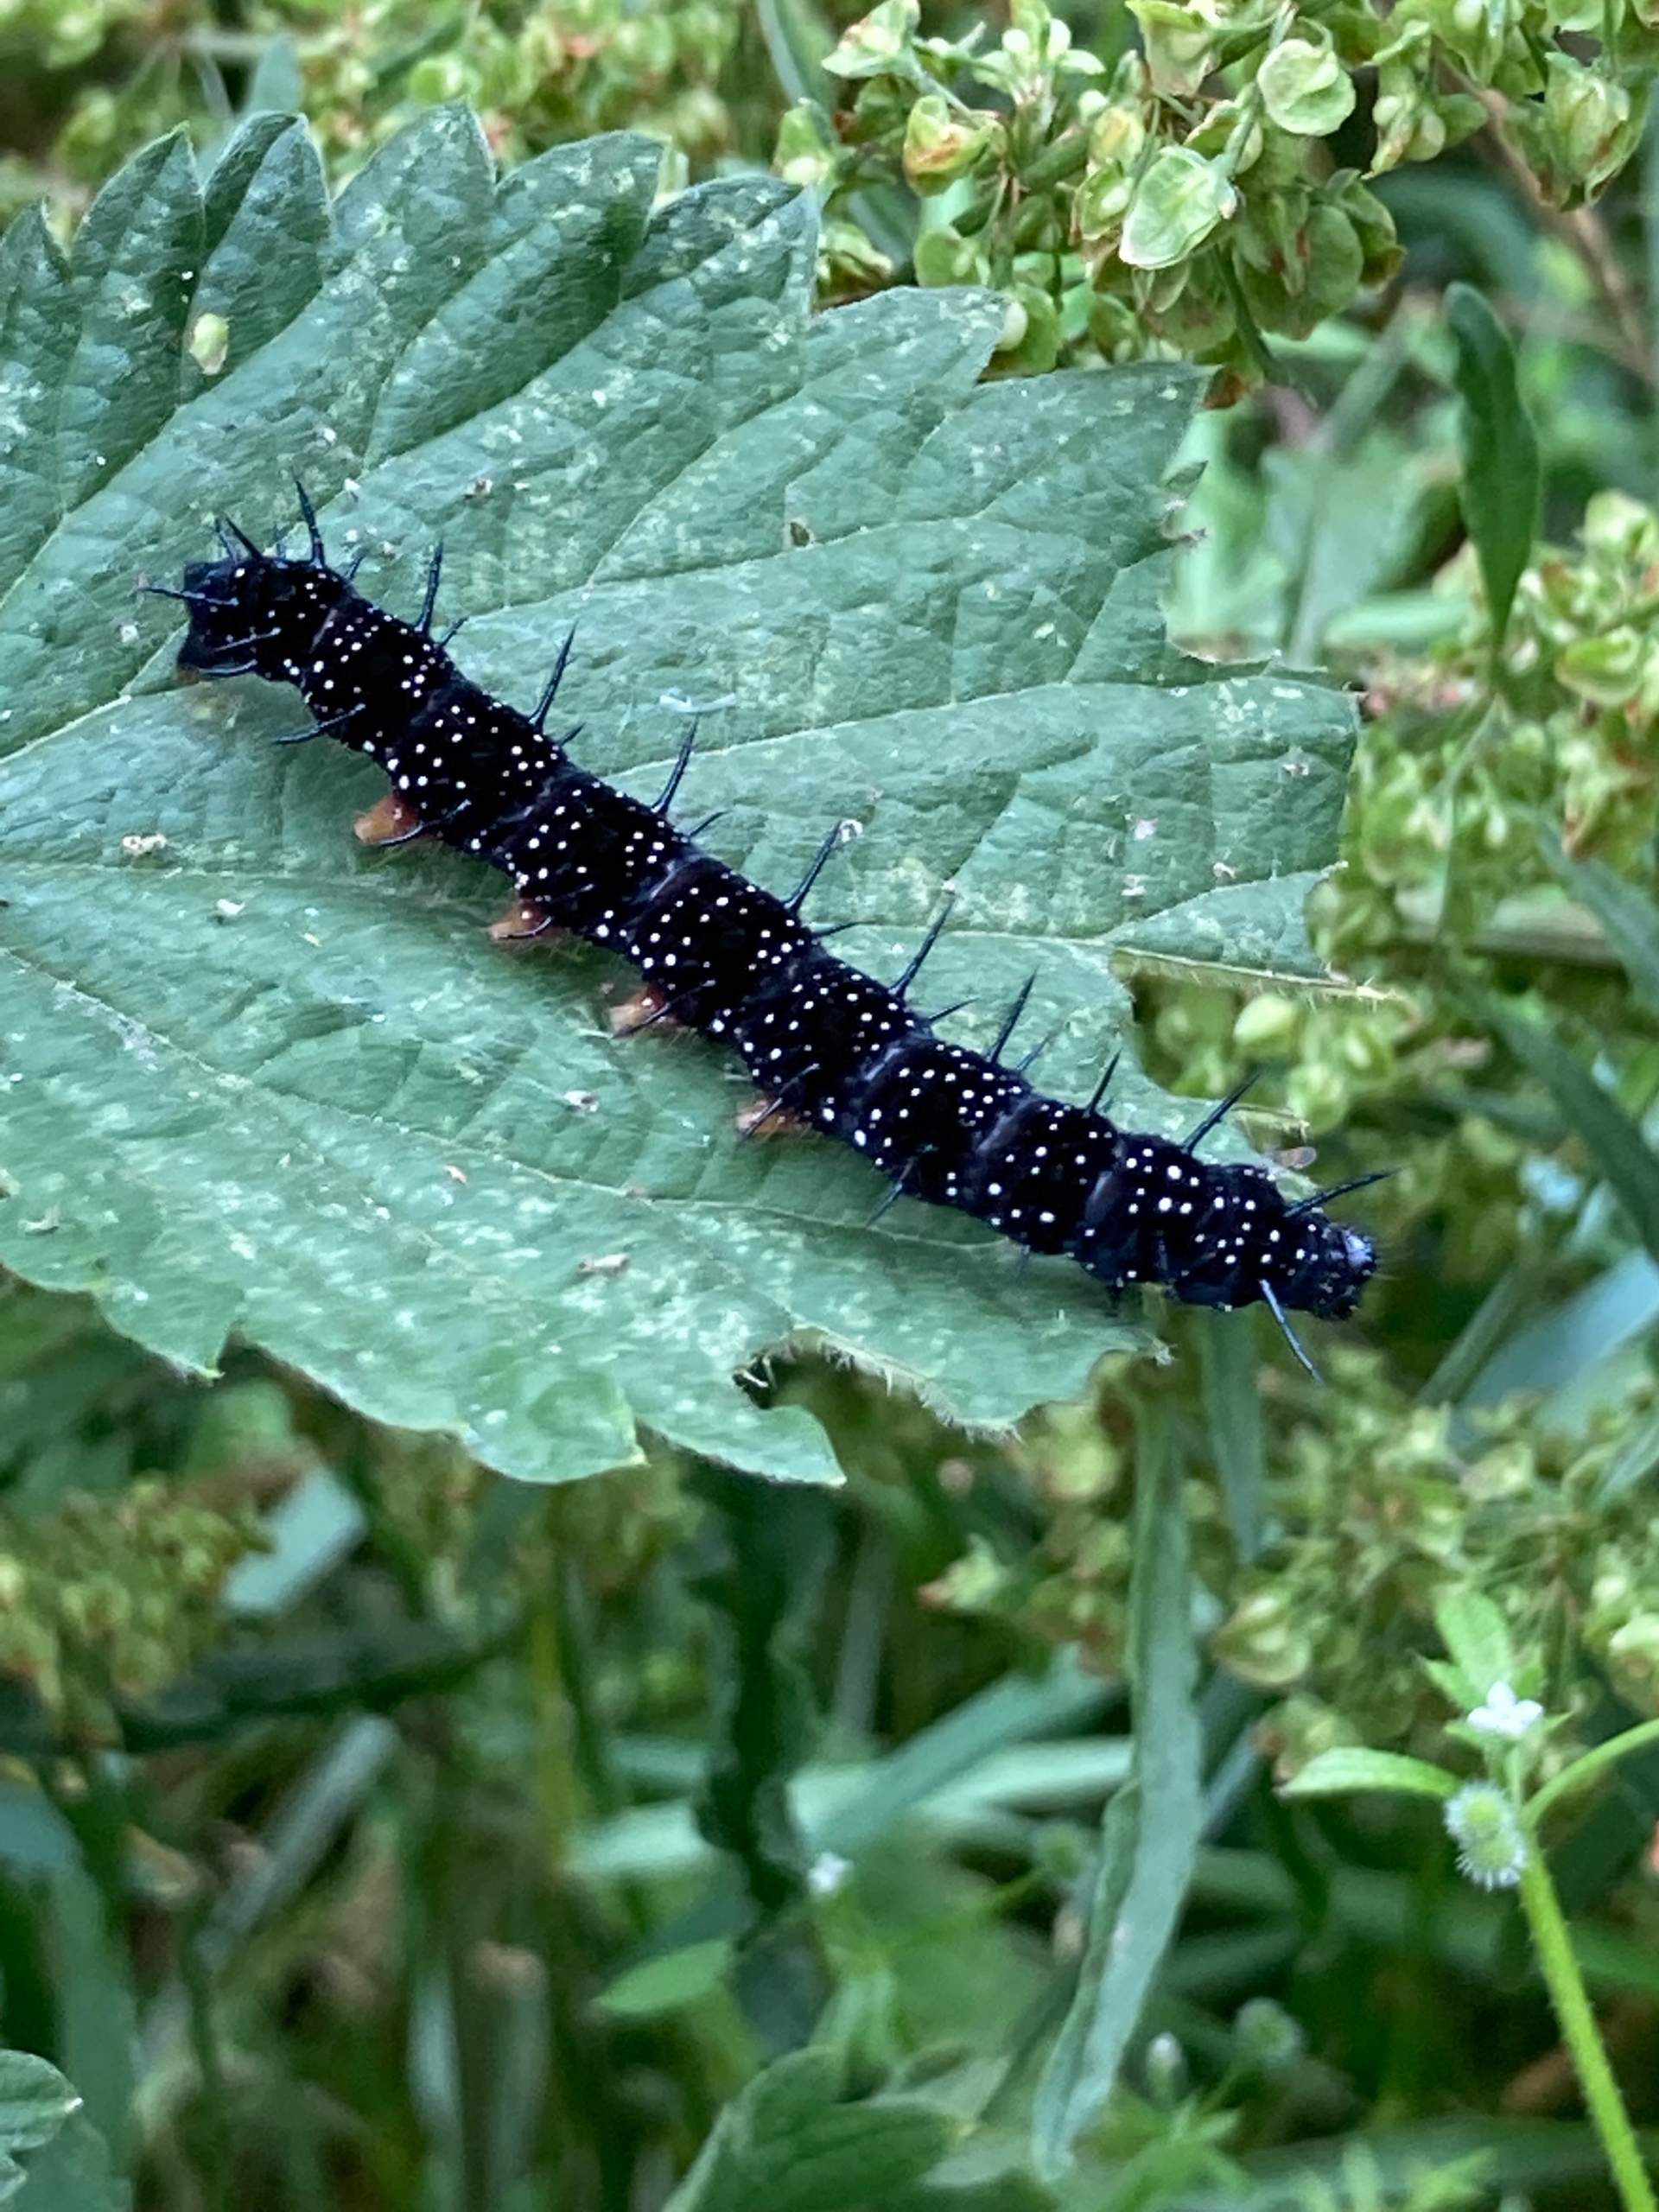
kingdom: Animalia
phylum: Arthropoda
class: Insecta
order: Lepidoptera
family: Nymphalidae
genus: Aglais
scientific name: Aglais io
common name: Dagpåfugleøje
